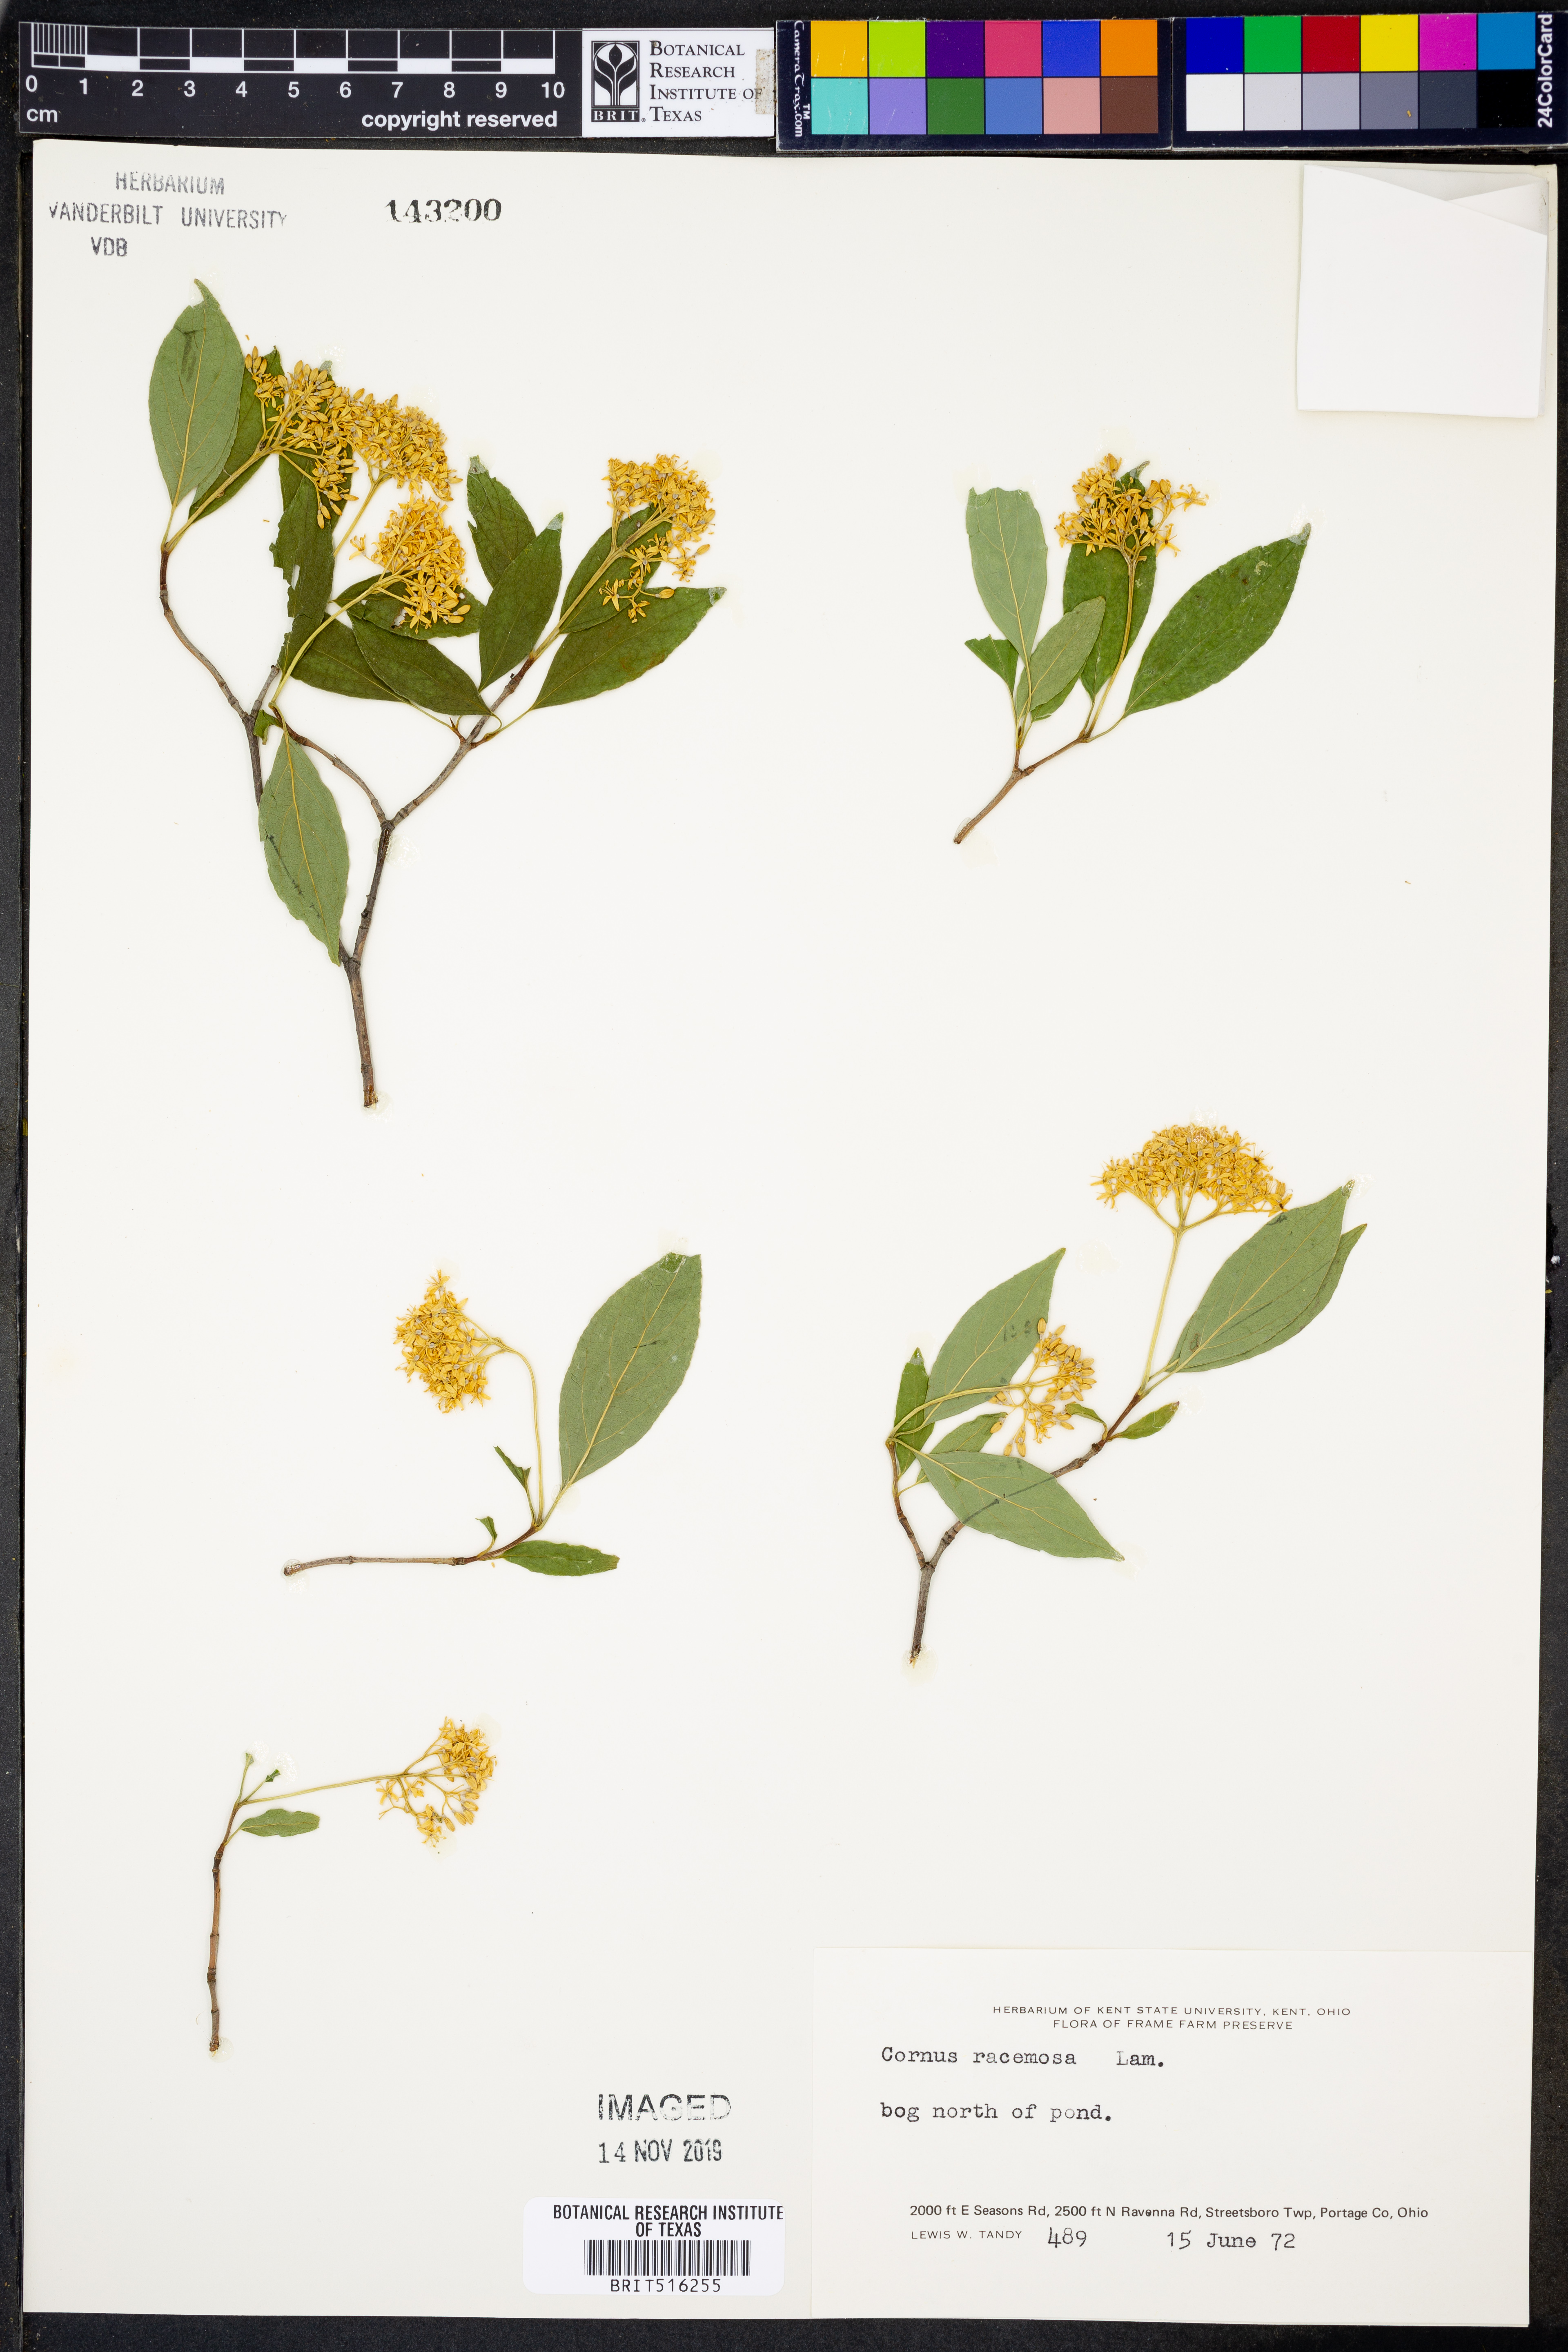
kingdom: Plantae
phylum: Tracheophyta
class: Magnoliopsida
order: Cornales
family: Cornaceae
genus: Cornus
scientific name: Cornus racemosa
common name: Panicled dogwood
